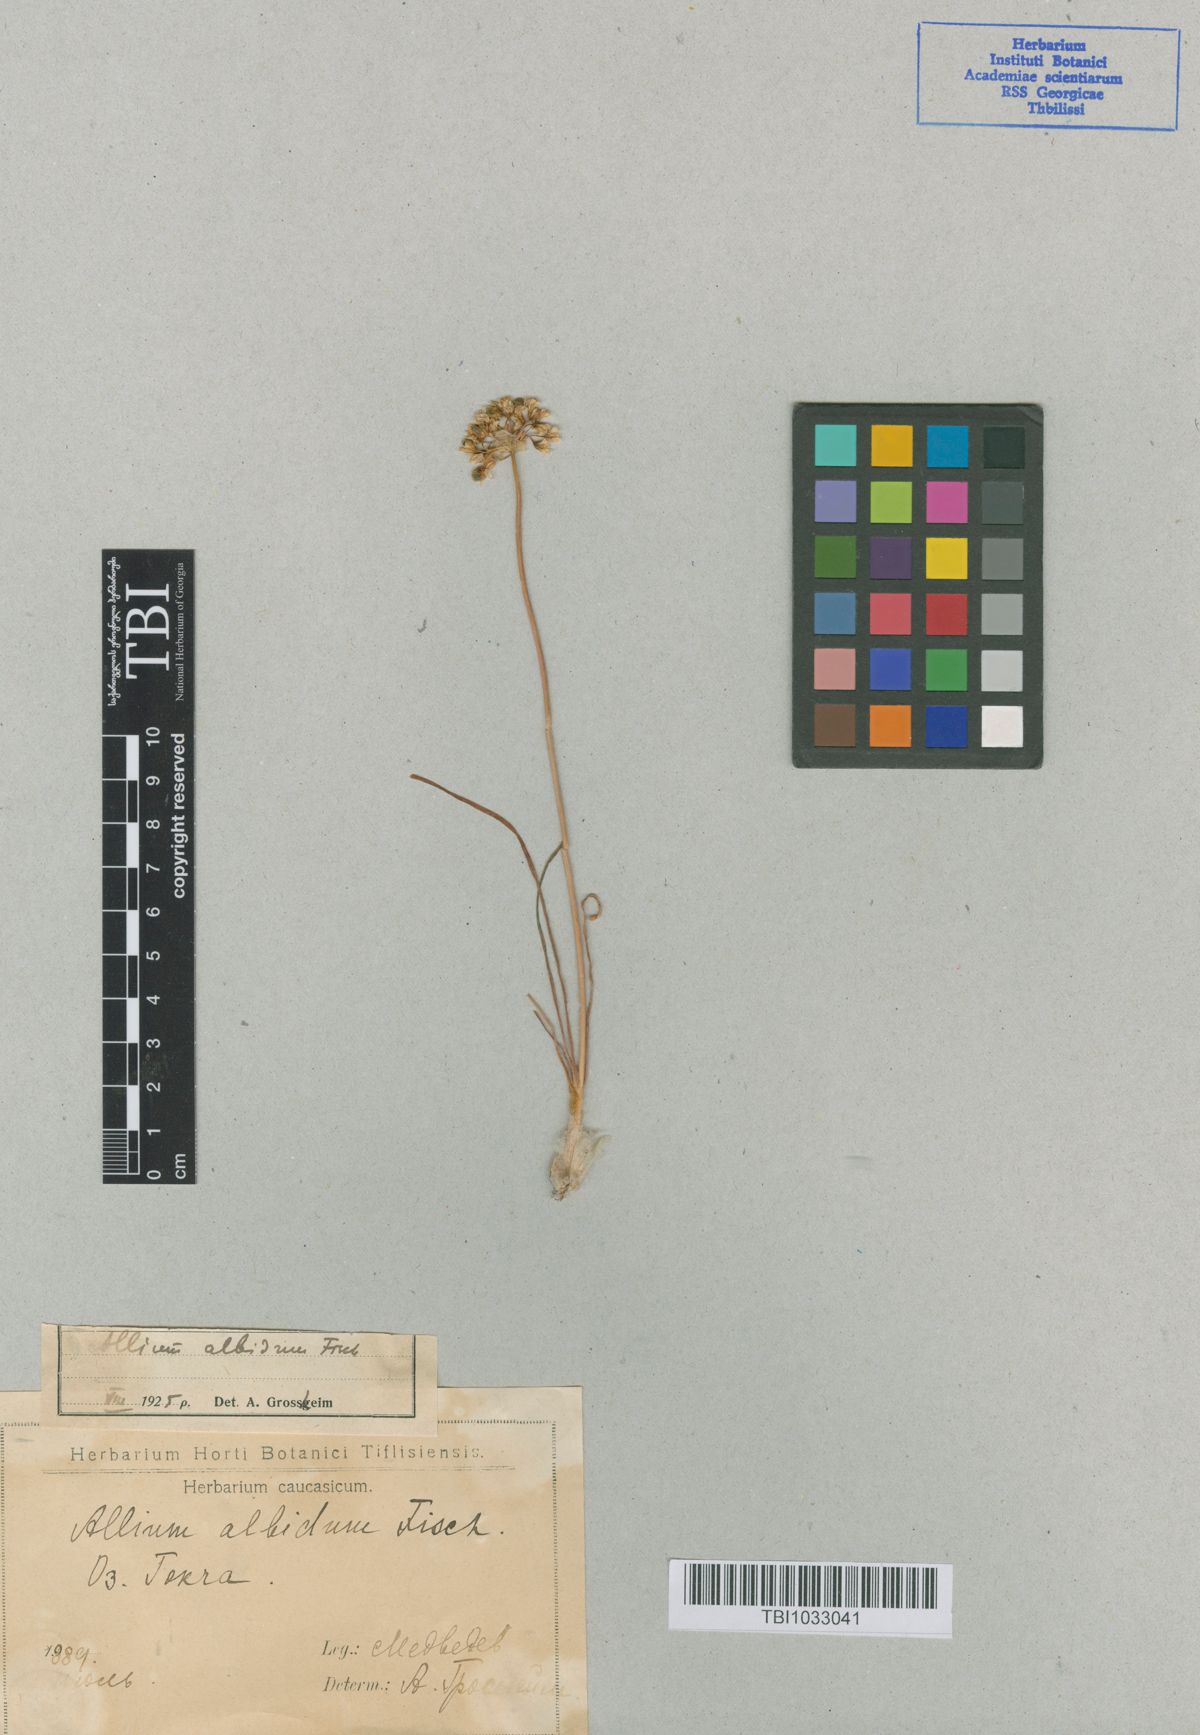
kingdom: Plantae
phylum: Tracheophyta
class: Liliopsida
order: Asparagales
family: Amaryllidaceae
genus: Allium
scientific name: Allium denudatum
